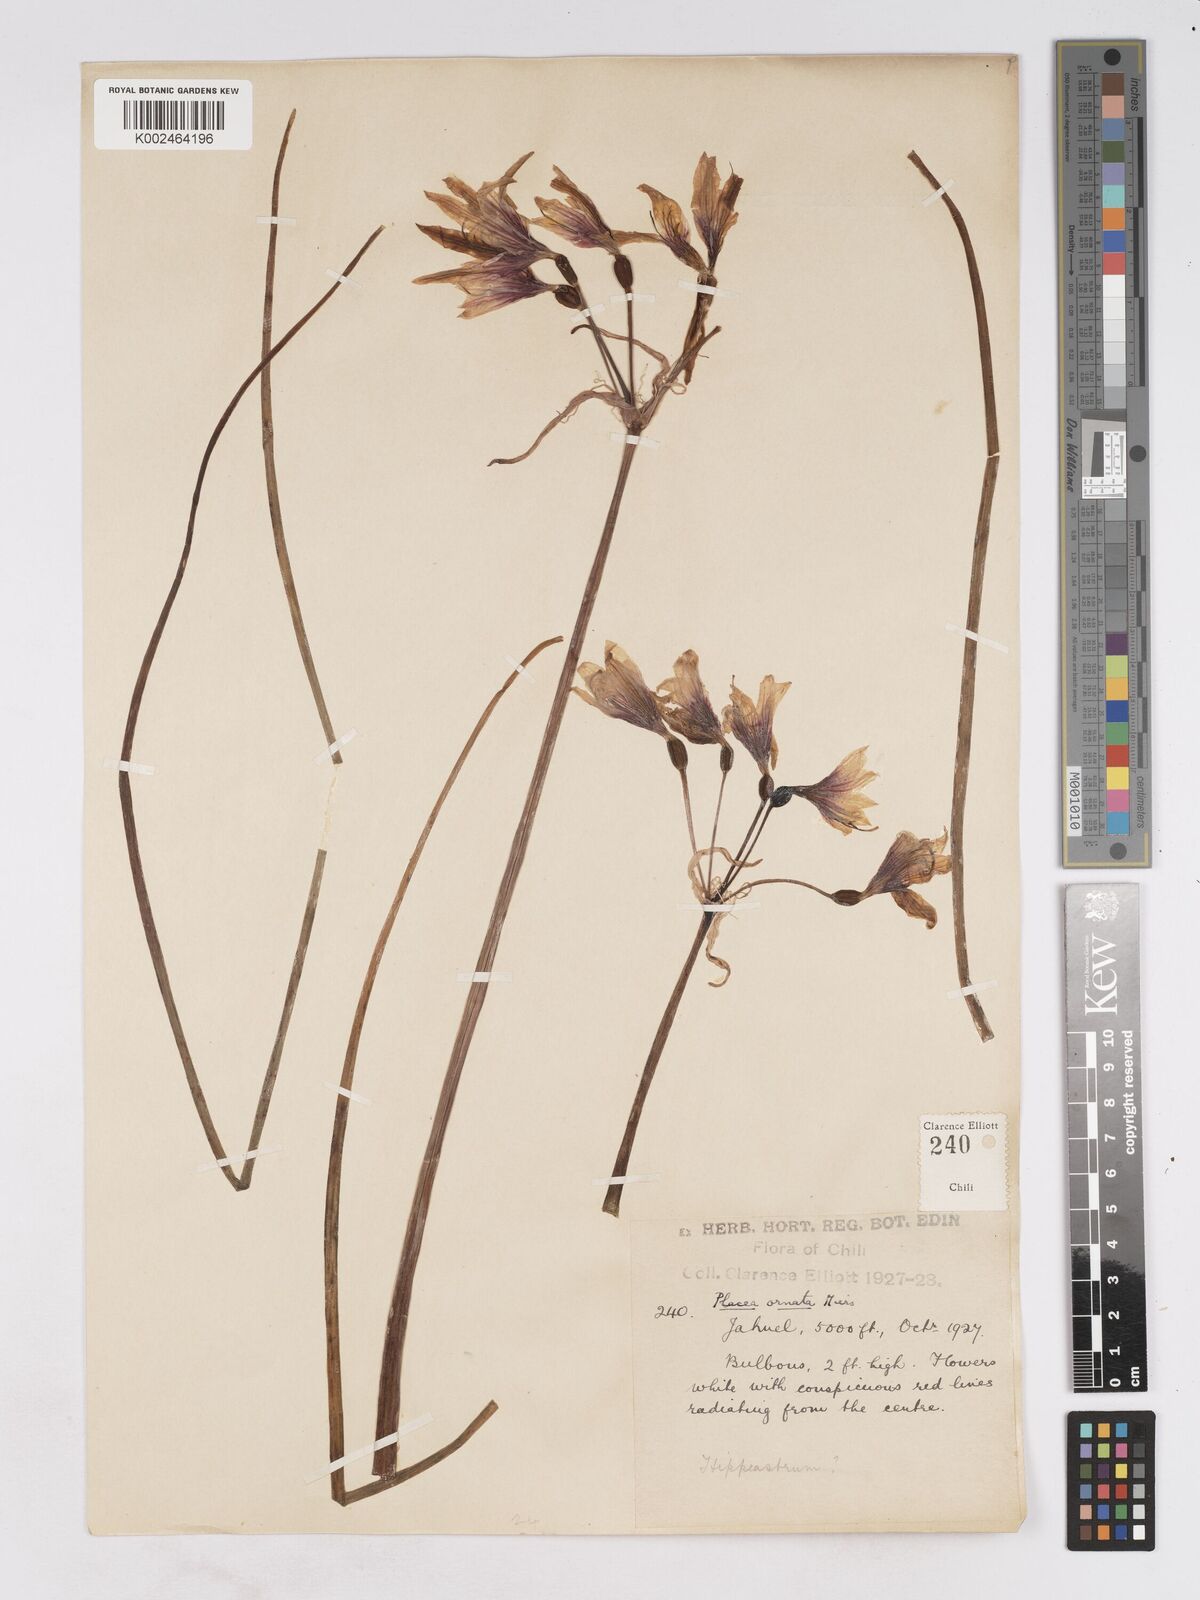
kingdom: Plantae
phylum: Tracheophyta
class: Liliopsida
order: Asparagales
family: Amaryllidaceae
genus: Phycella
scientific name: Phycella ornata
